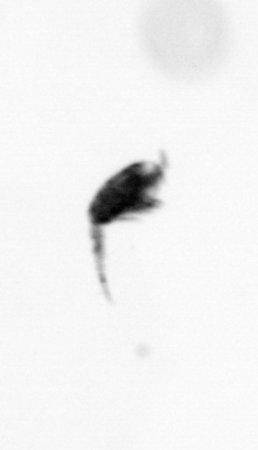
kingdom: Animalia
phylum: Arthropoda
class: Copepoda
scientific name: Copepoda
